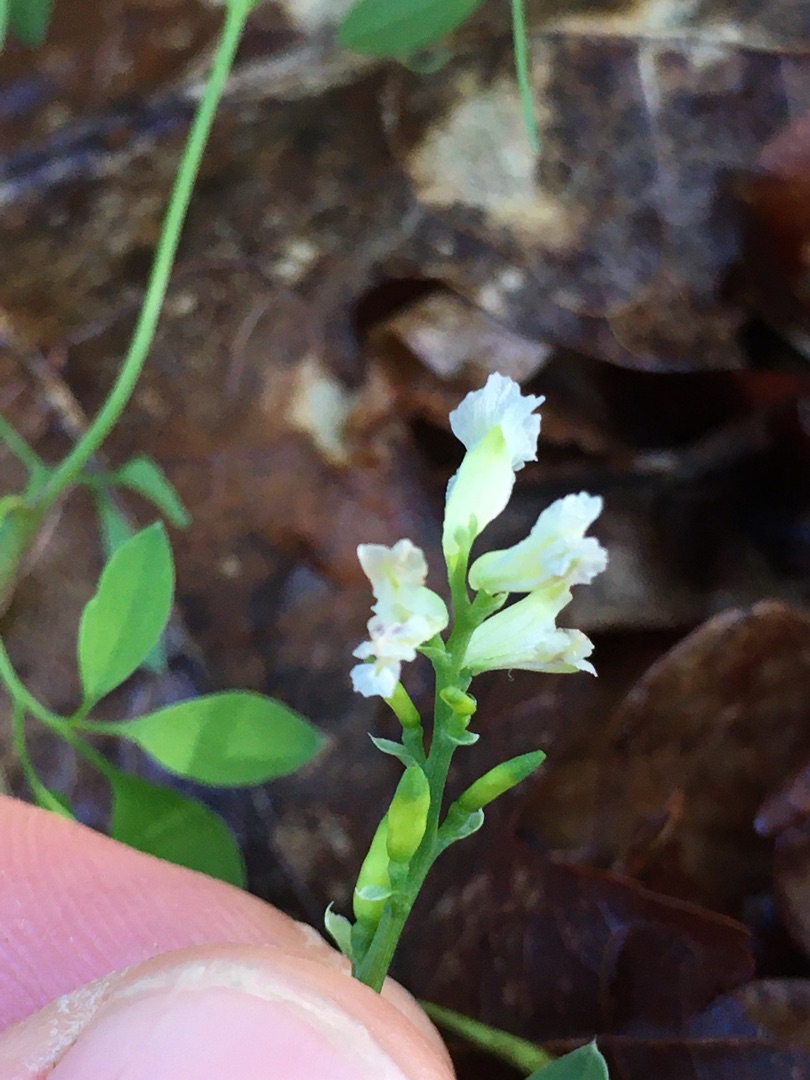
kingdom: Plantae
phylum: Tracheophyta
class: Magnoliopsida
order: Ranunculales
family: Papaveraceae
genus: Ceratocapnos
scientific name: Ceratocapnos claviculata
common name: Klatrende lærkespore
